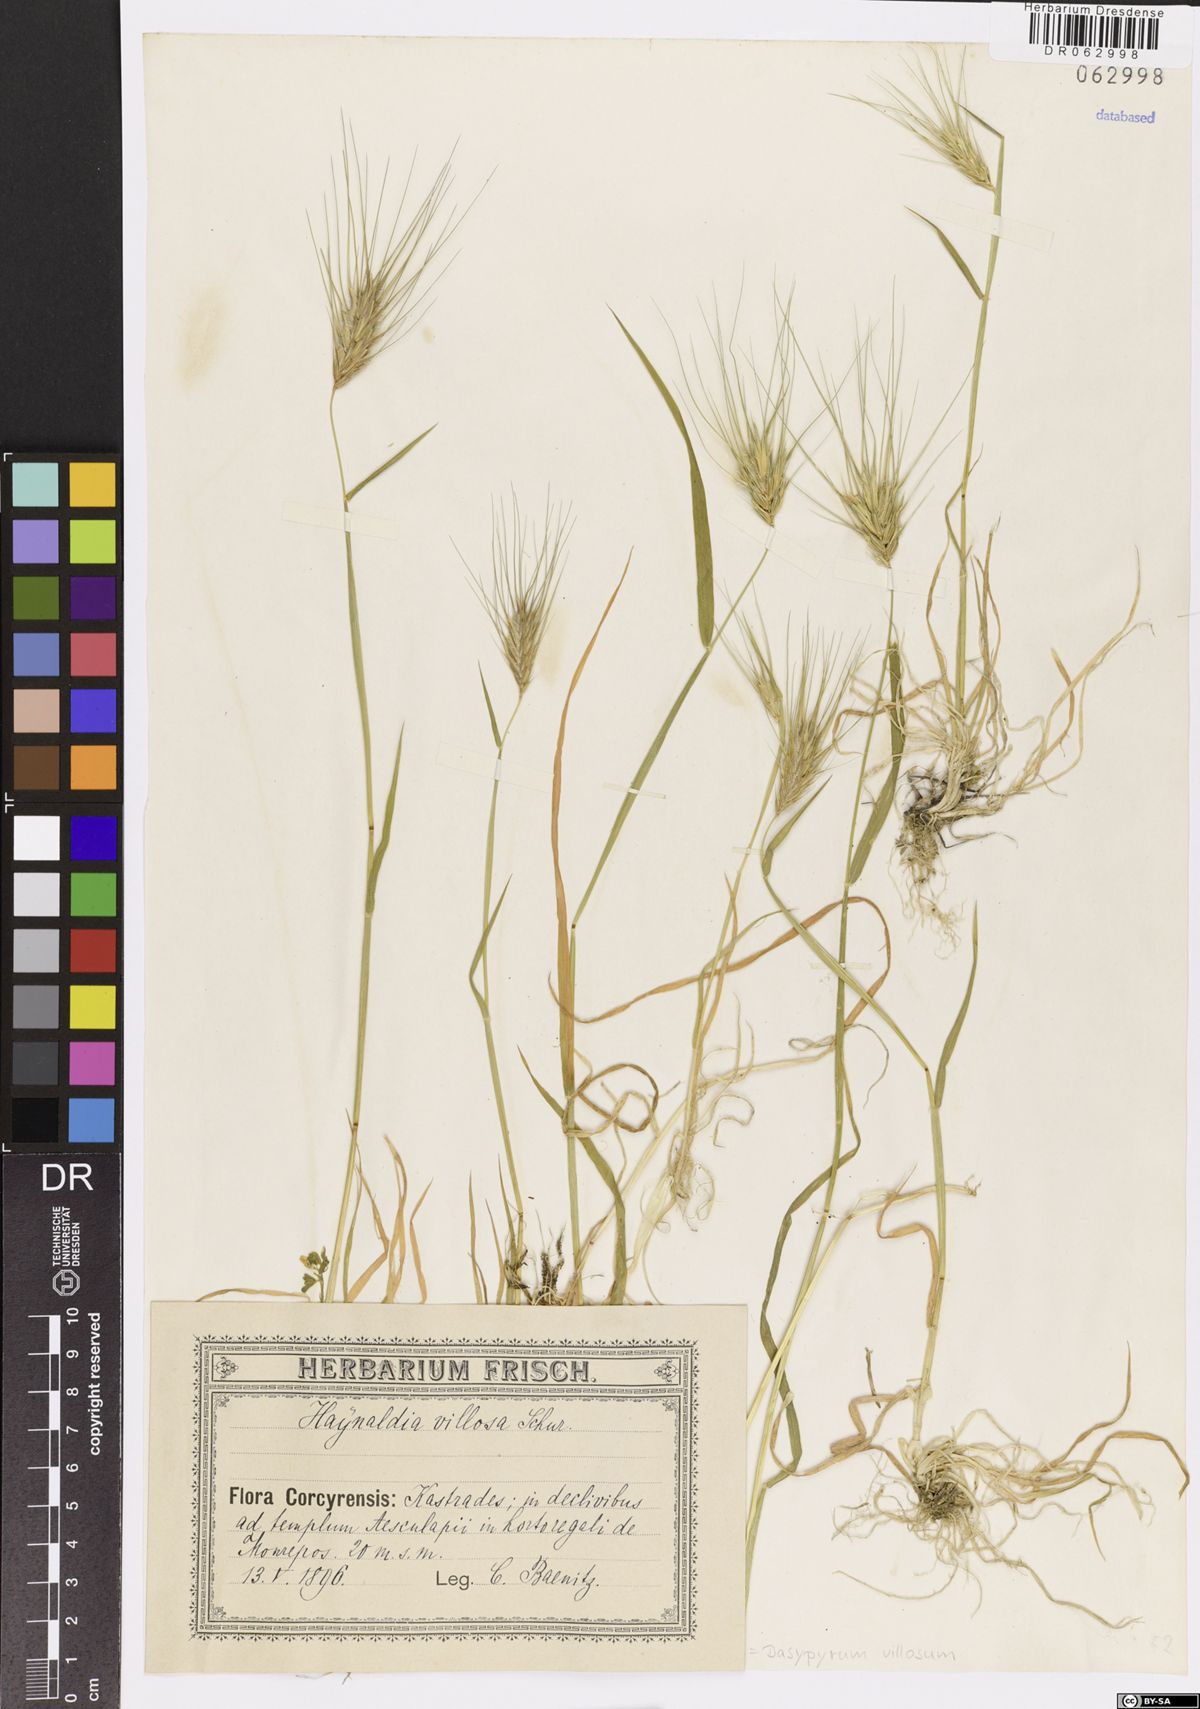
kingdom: Plantae
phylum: Tracheophyta
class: Liliopsida
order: Poales
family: Poaceae
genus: Dasypyrum
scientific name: Dasypyrum villosum
